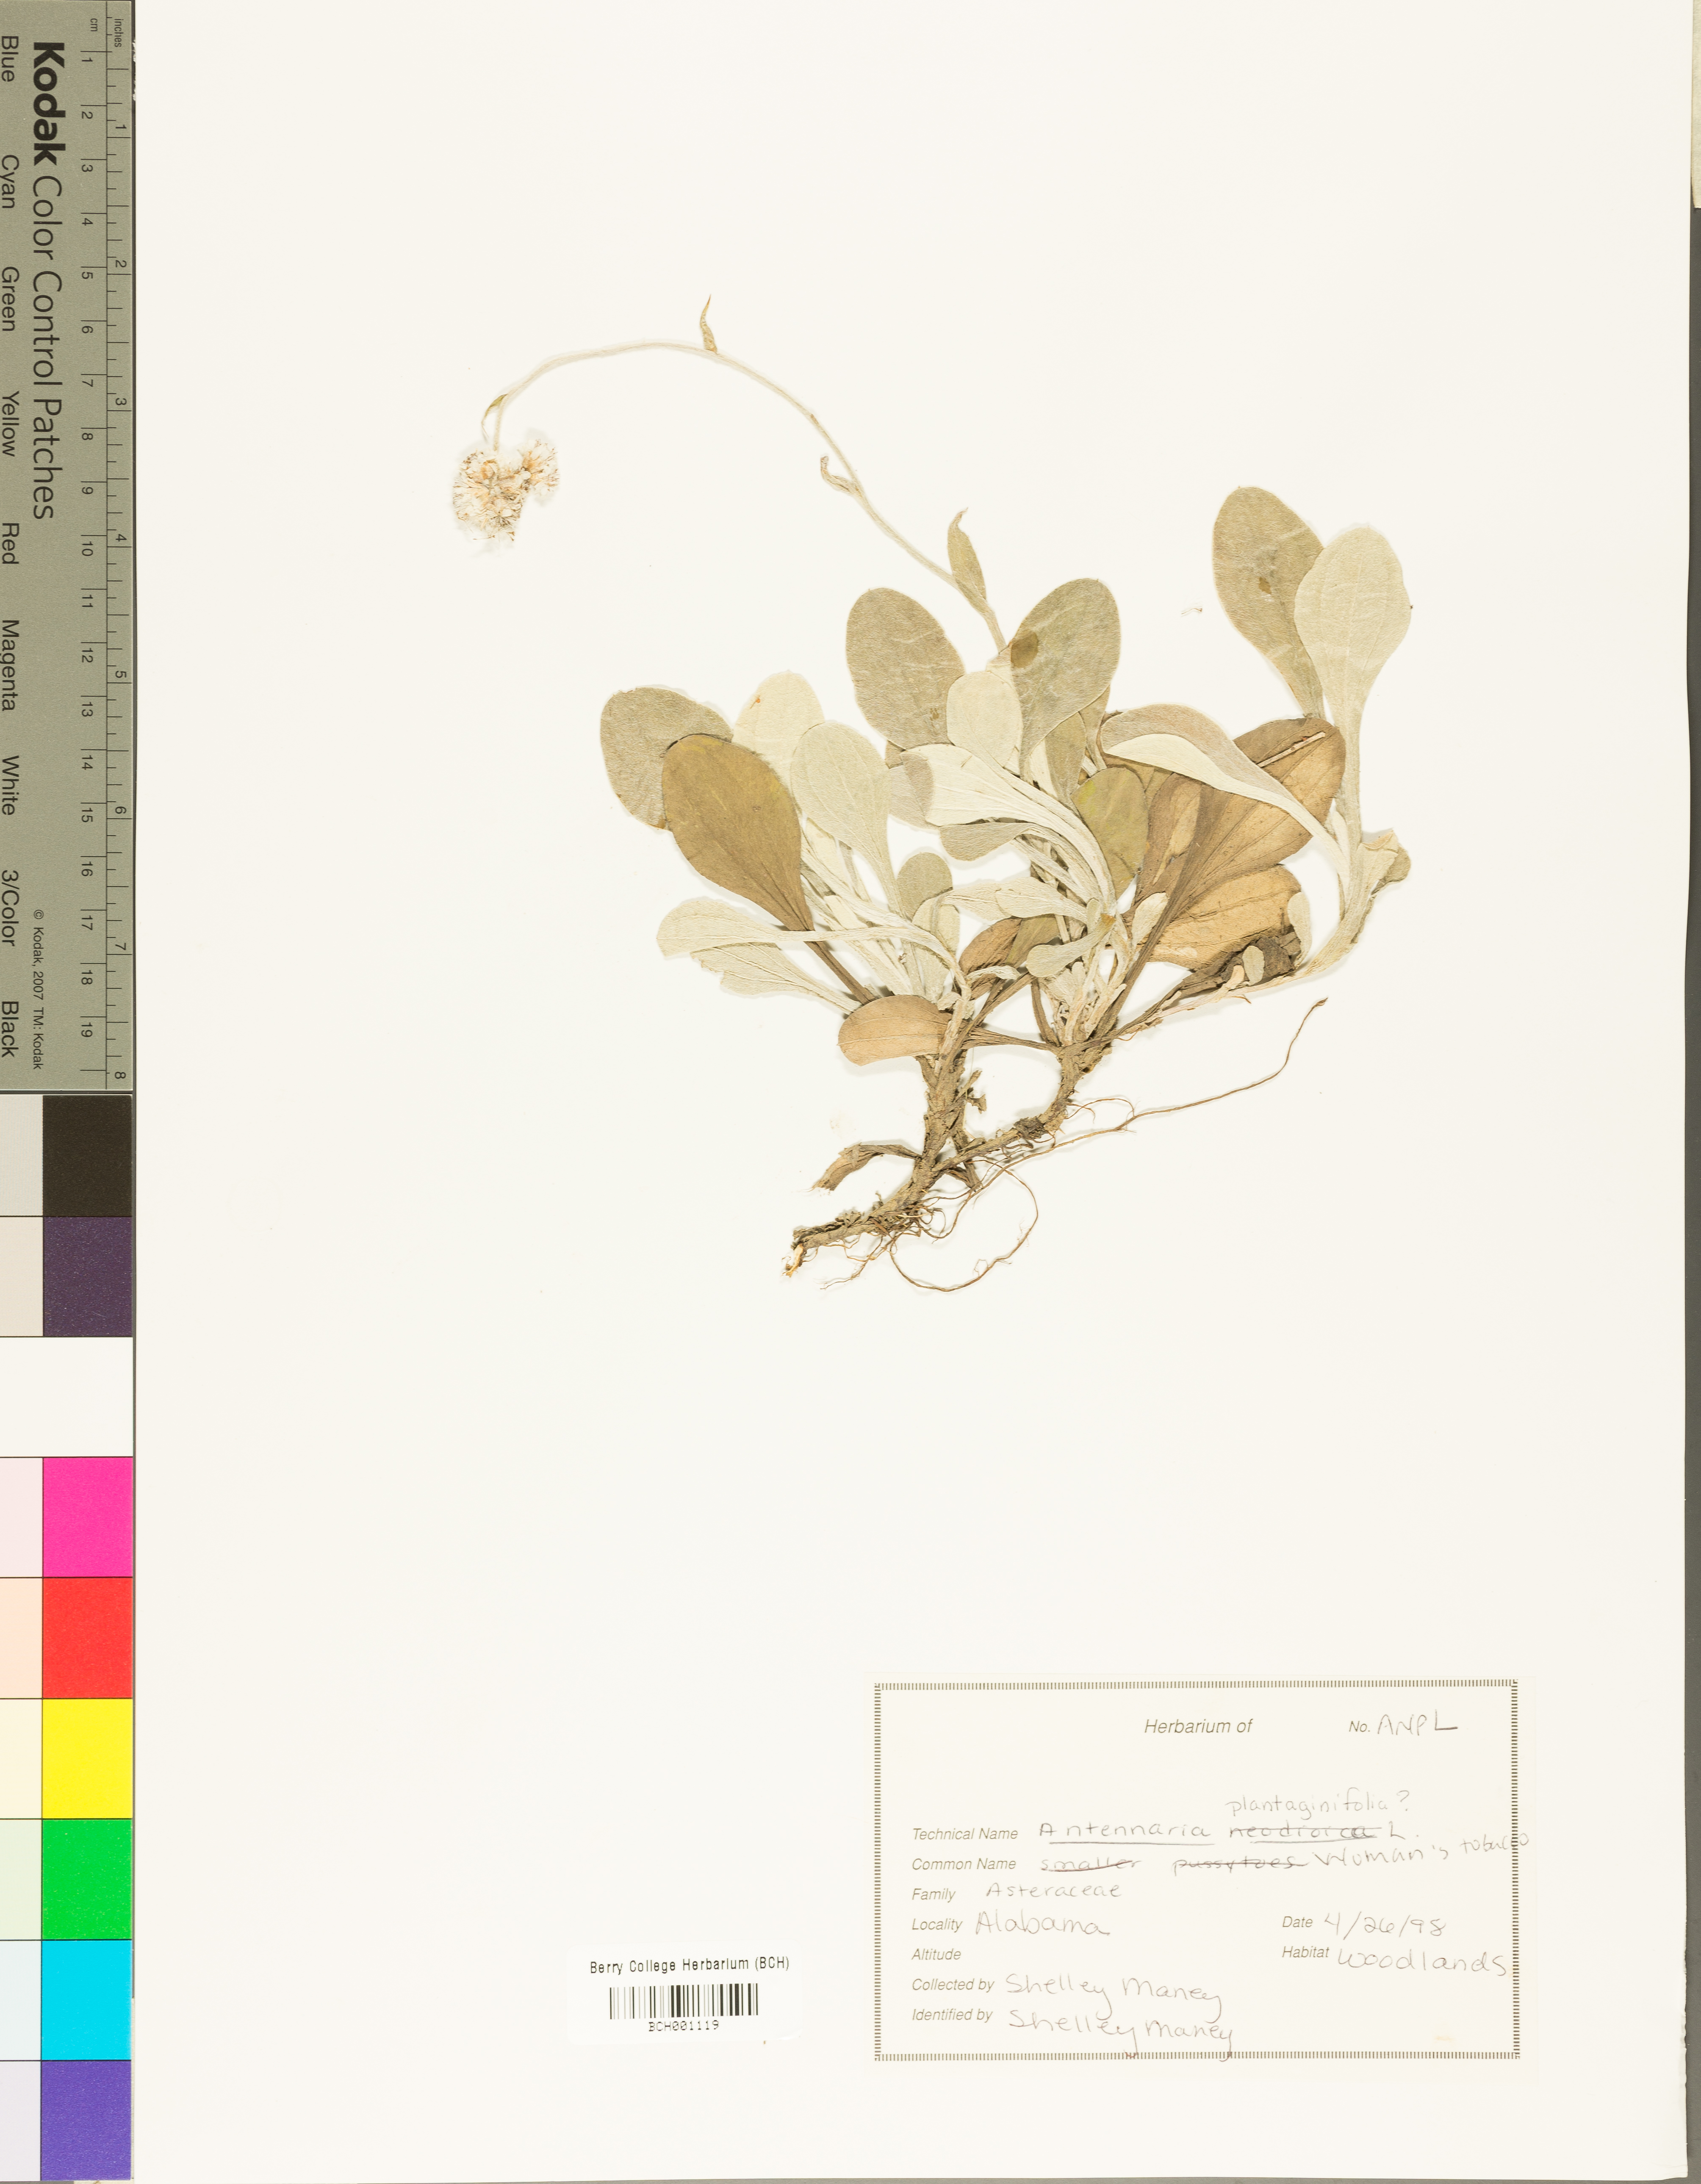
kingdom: Plantae
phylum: Tracheophyta
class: Magnoliopsida
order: Asterales
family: Asteraceae
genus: Antennaria
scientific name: Antennaria plantaginifolia
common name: Plantain-leaved pussytoes
